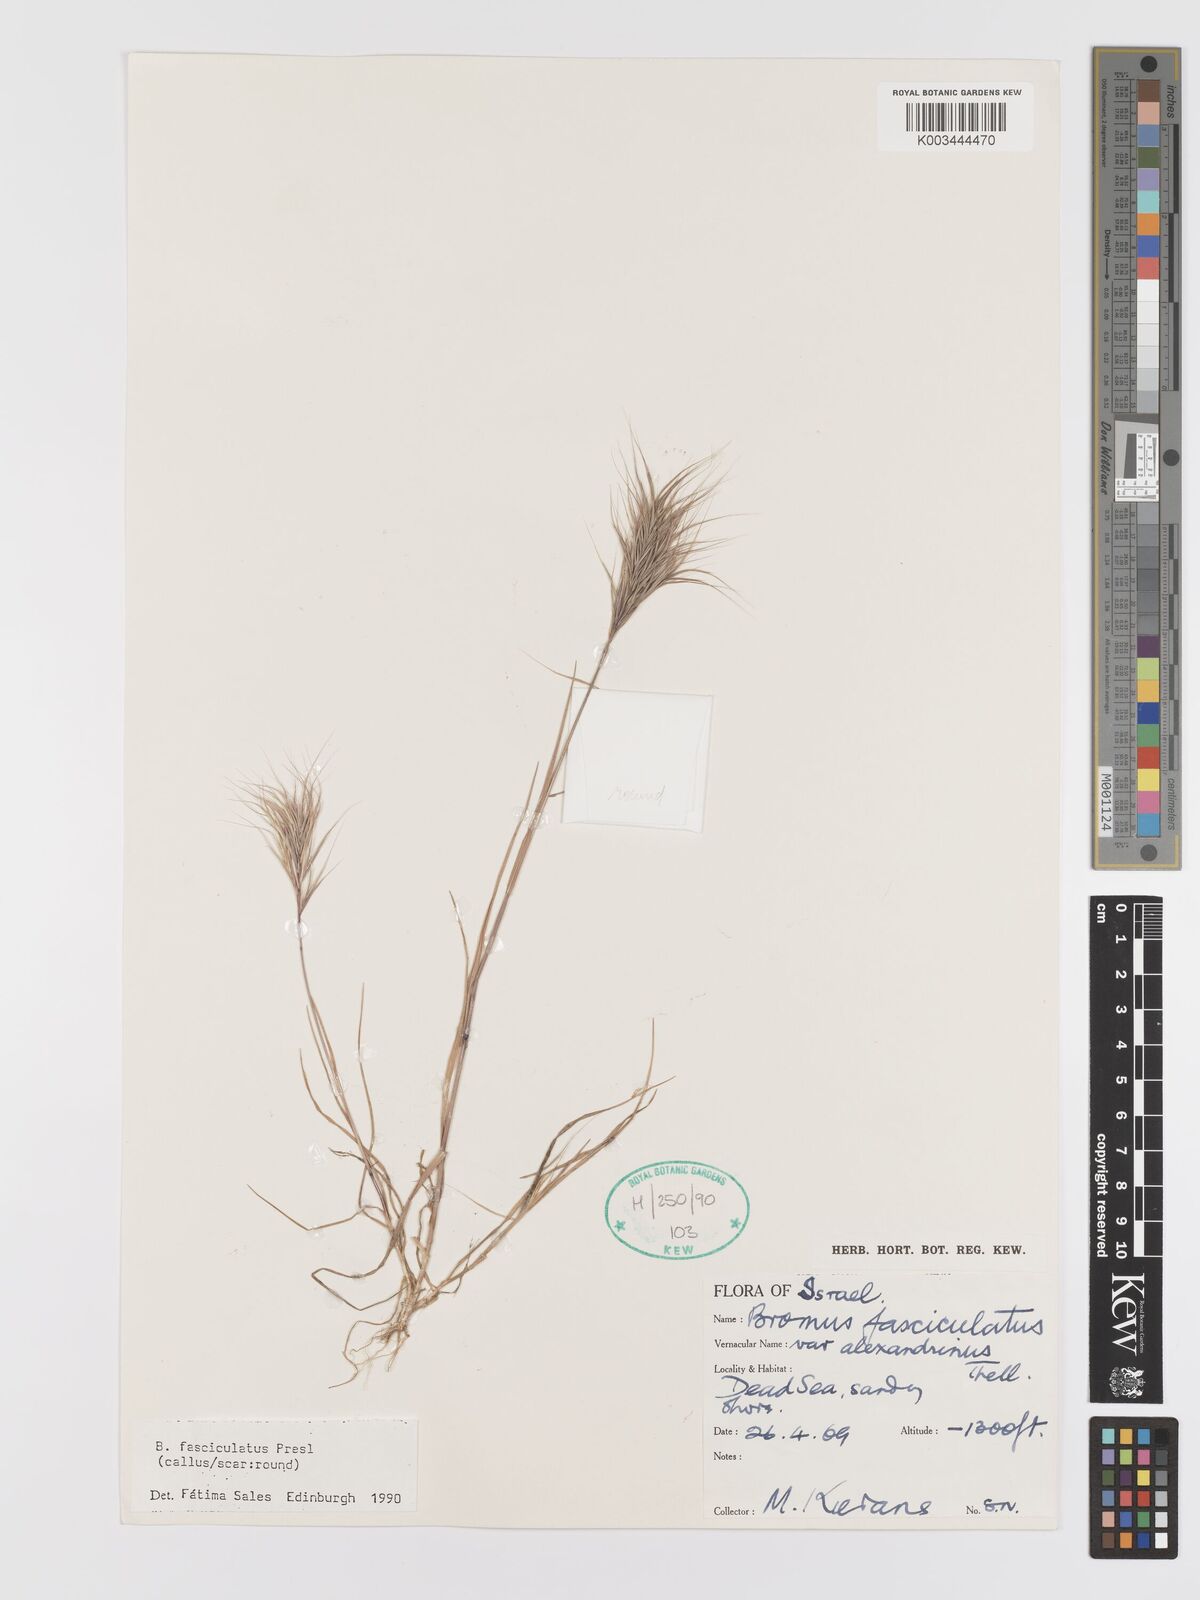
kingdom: Plantae
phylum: Tracheophyta
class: Liliopsida
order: Poales
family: Poaceae
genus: Bromus
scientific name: Bromus fasciculatus
